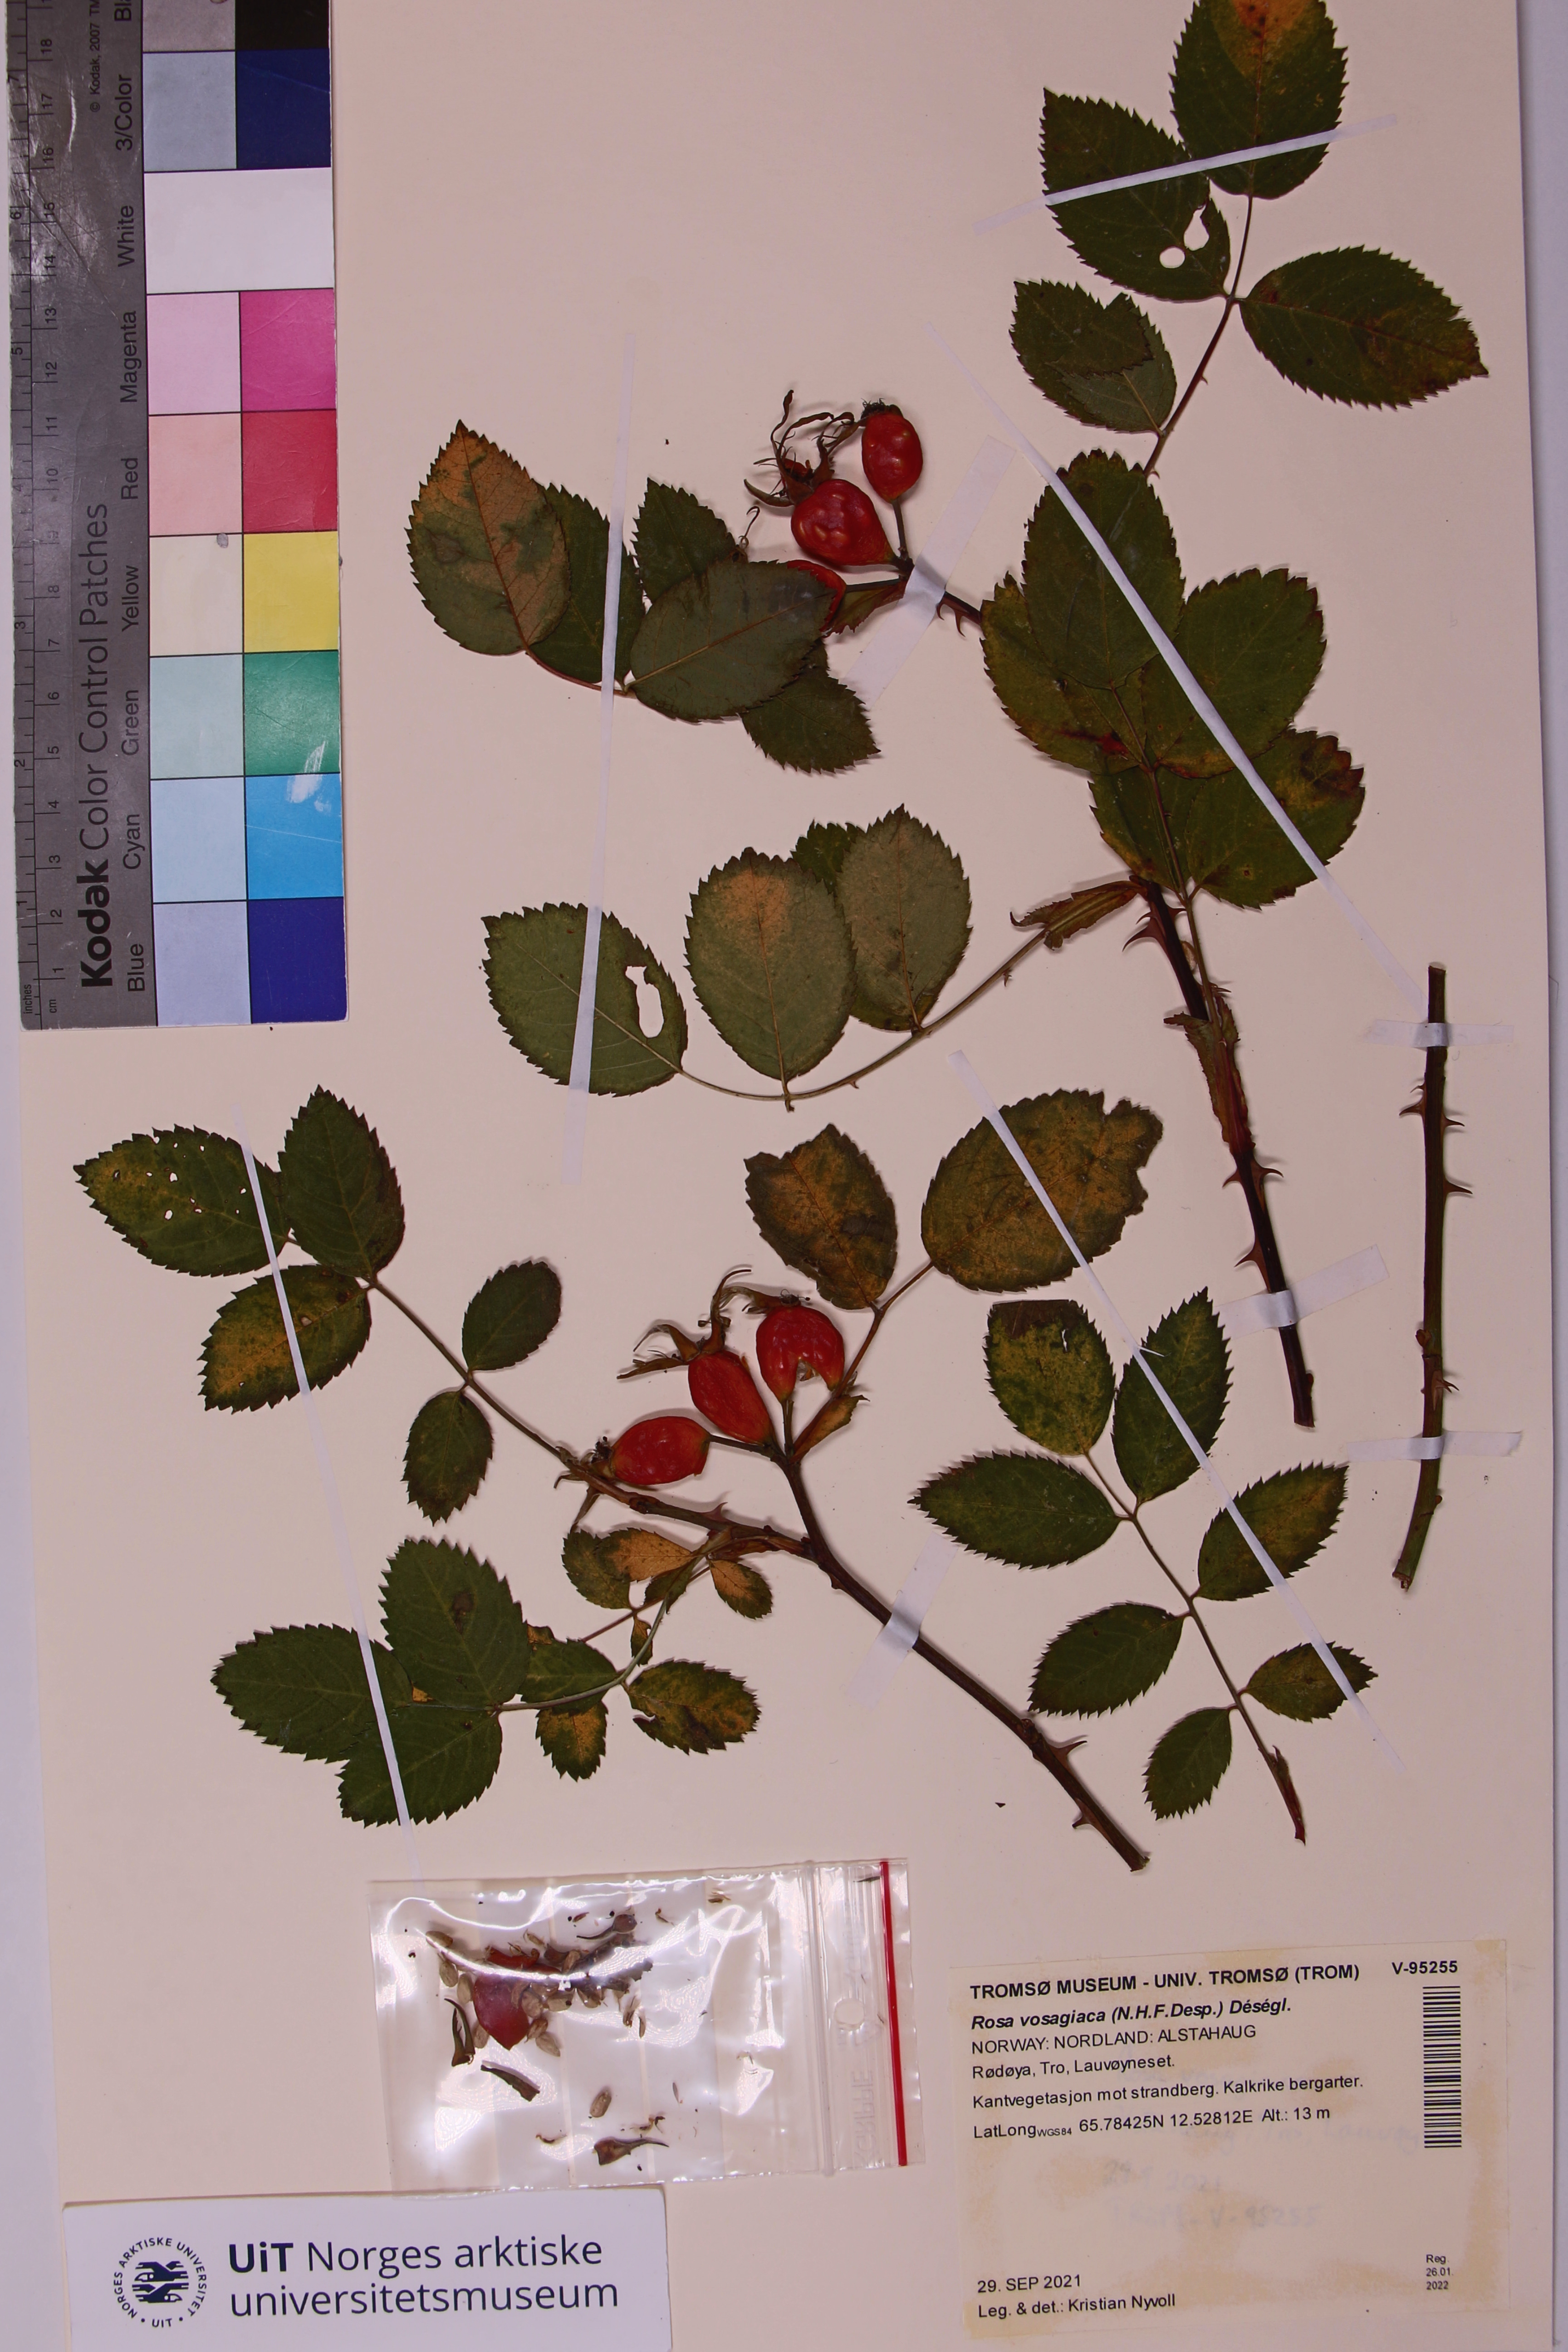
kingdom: Plantae
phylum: Tracheophyta
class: Magnoliopsida
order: Rosales
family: Rosaceae
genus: Rosa
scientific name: Rosa dumalis
